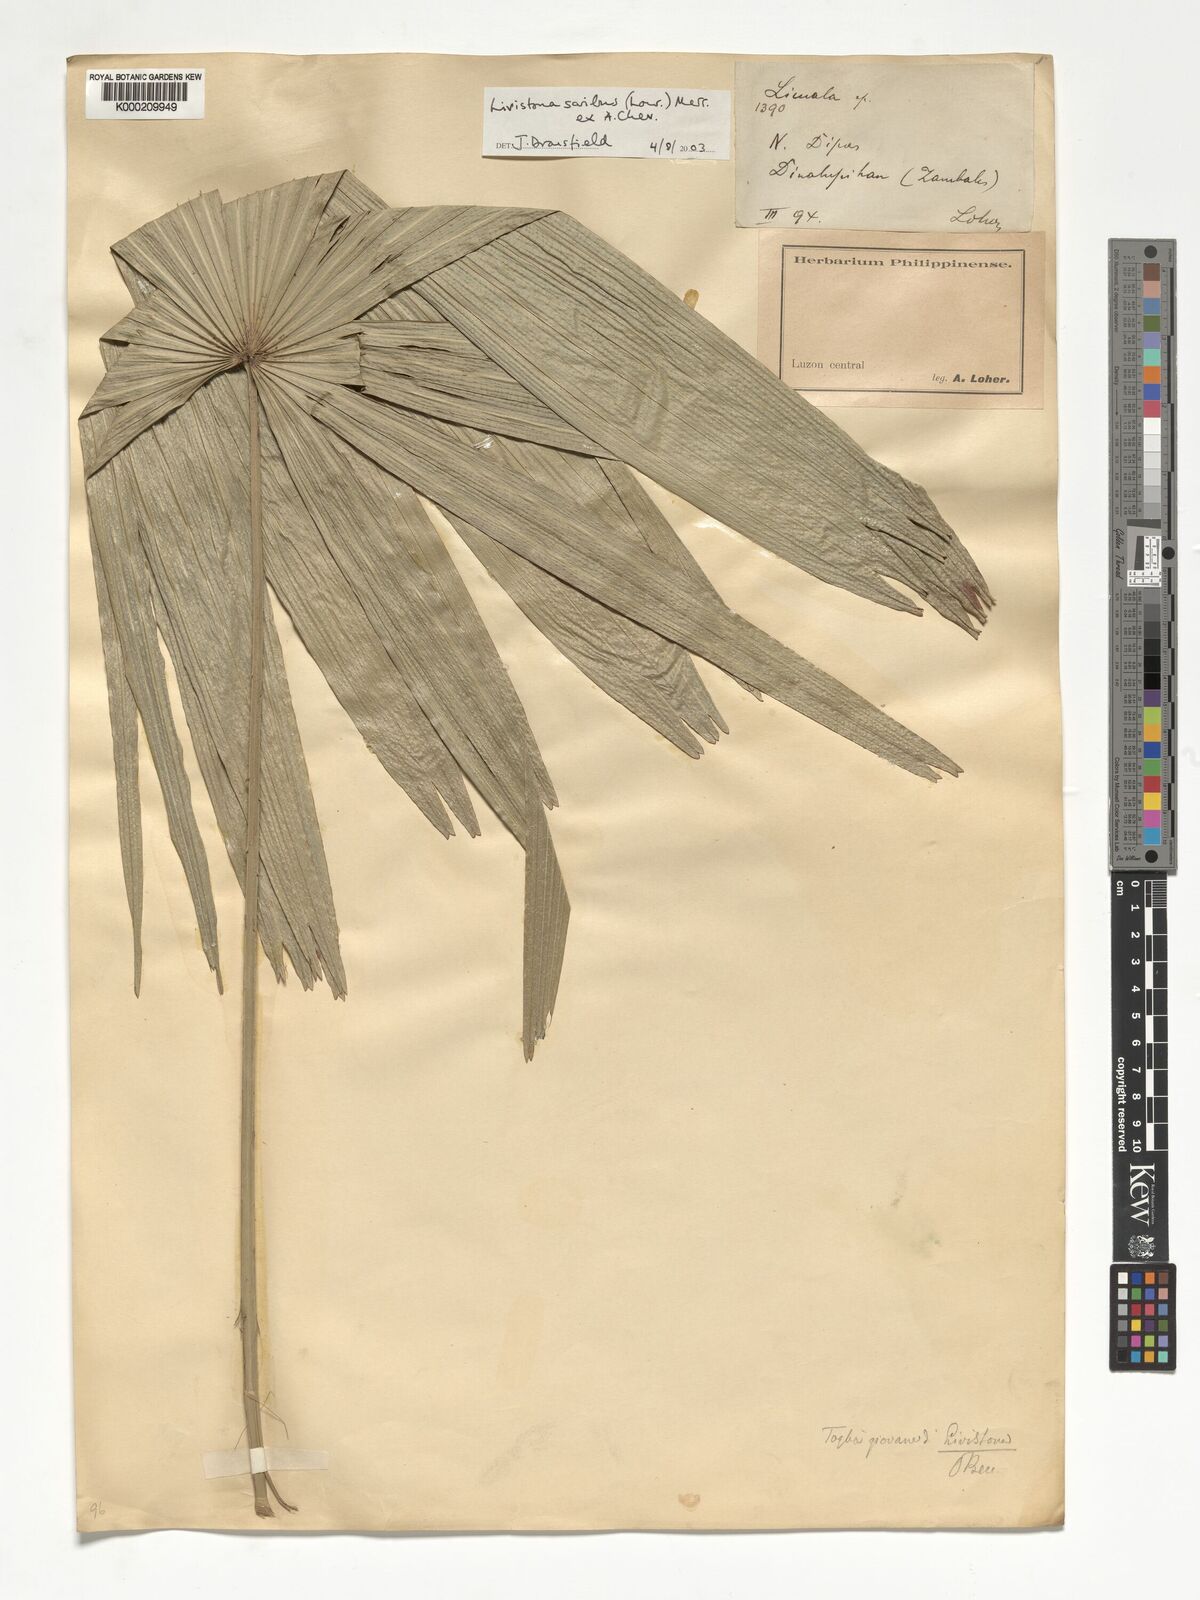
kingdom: Plantae
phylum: Tracheophyta
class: Liliopsida
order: Arecales
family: Arecaceae
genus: Livistona
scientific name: Livistona saribus
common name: Taraw palm
